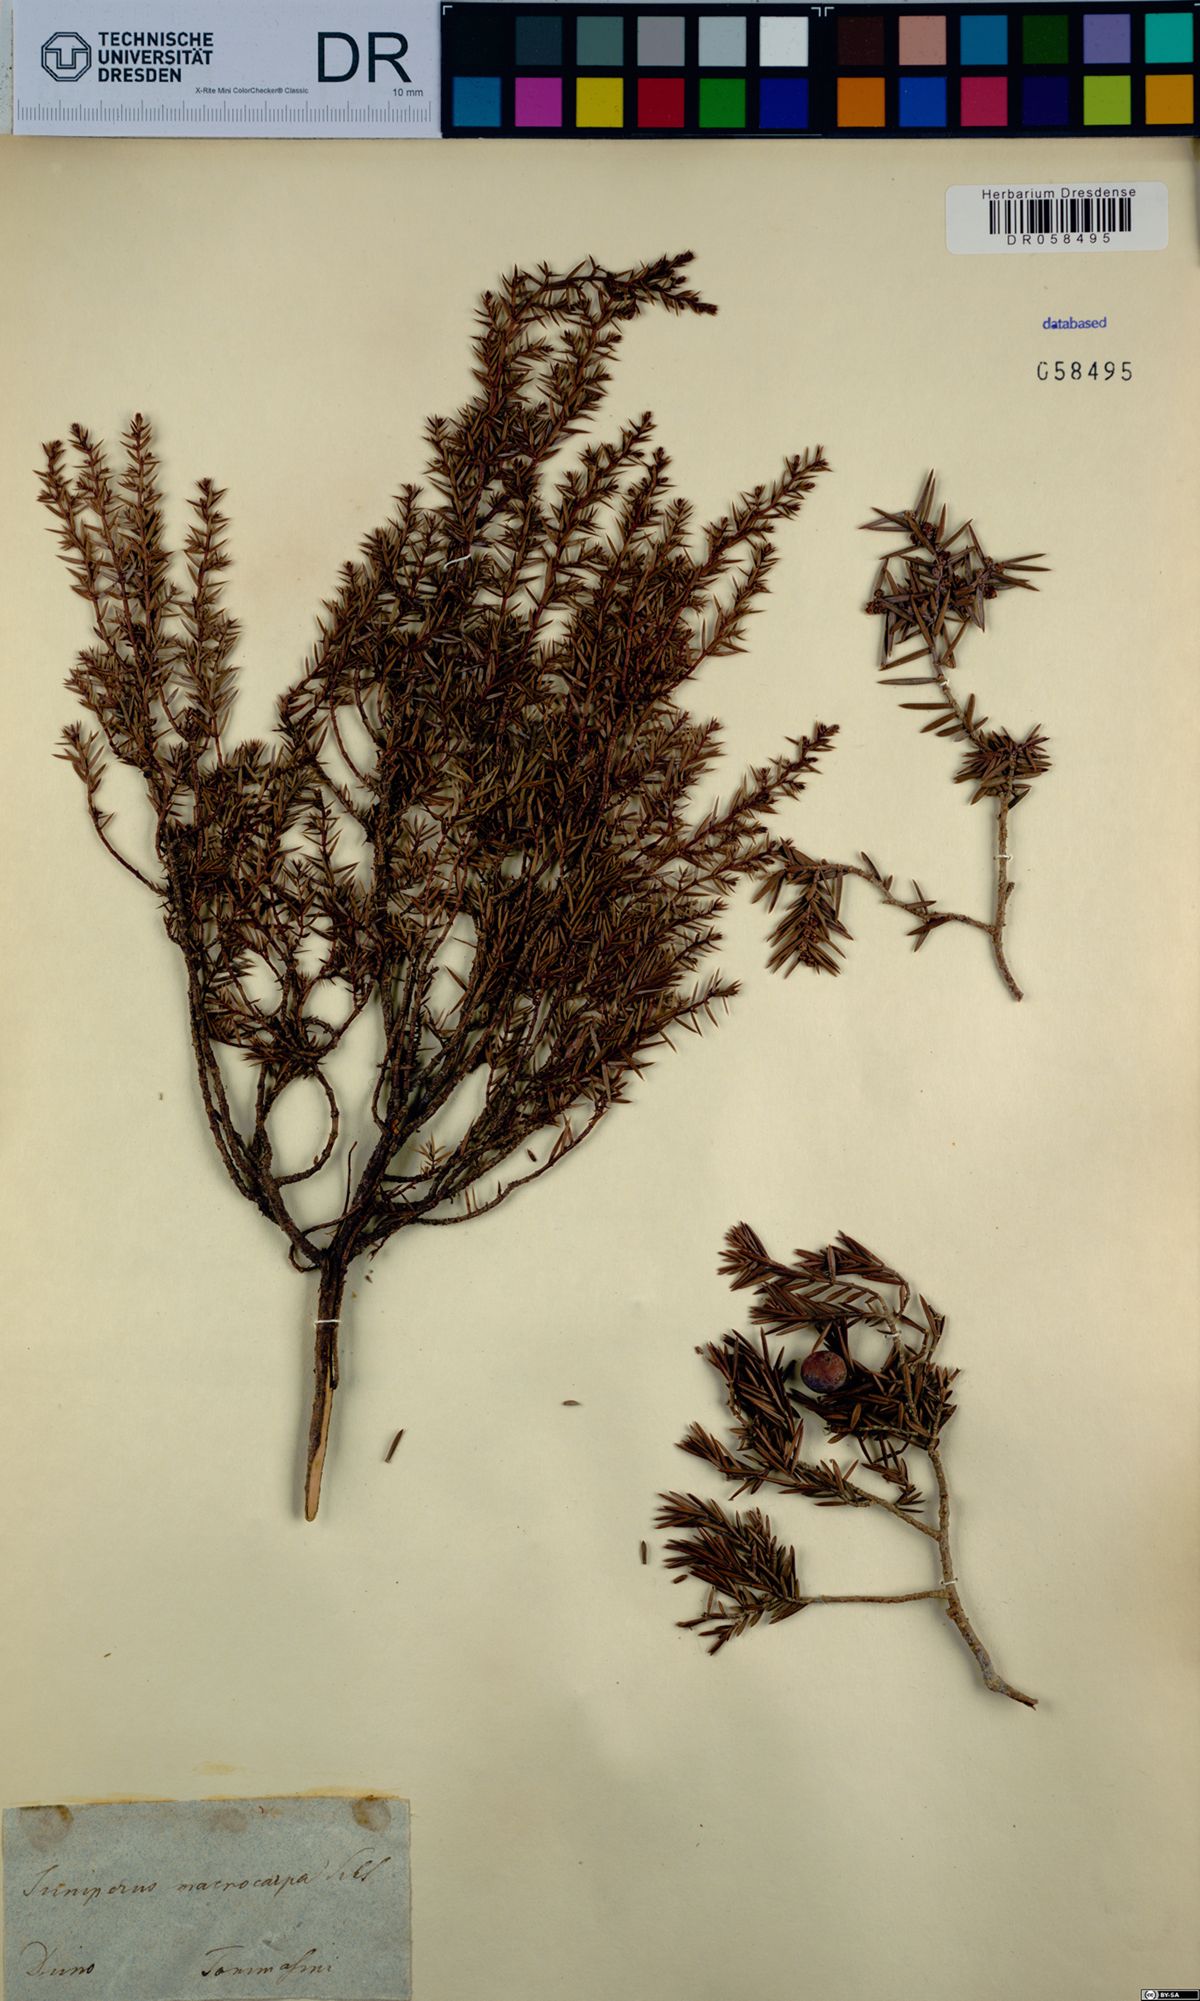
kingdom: Plantae
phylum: Tracheophyta
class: Pinopsida
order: Pinales
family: Cupressaceae
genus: Juniperus
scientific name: Juniperus oxycedrus
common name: Prickly juniper
